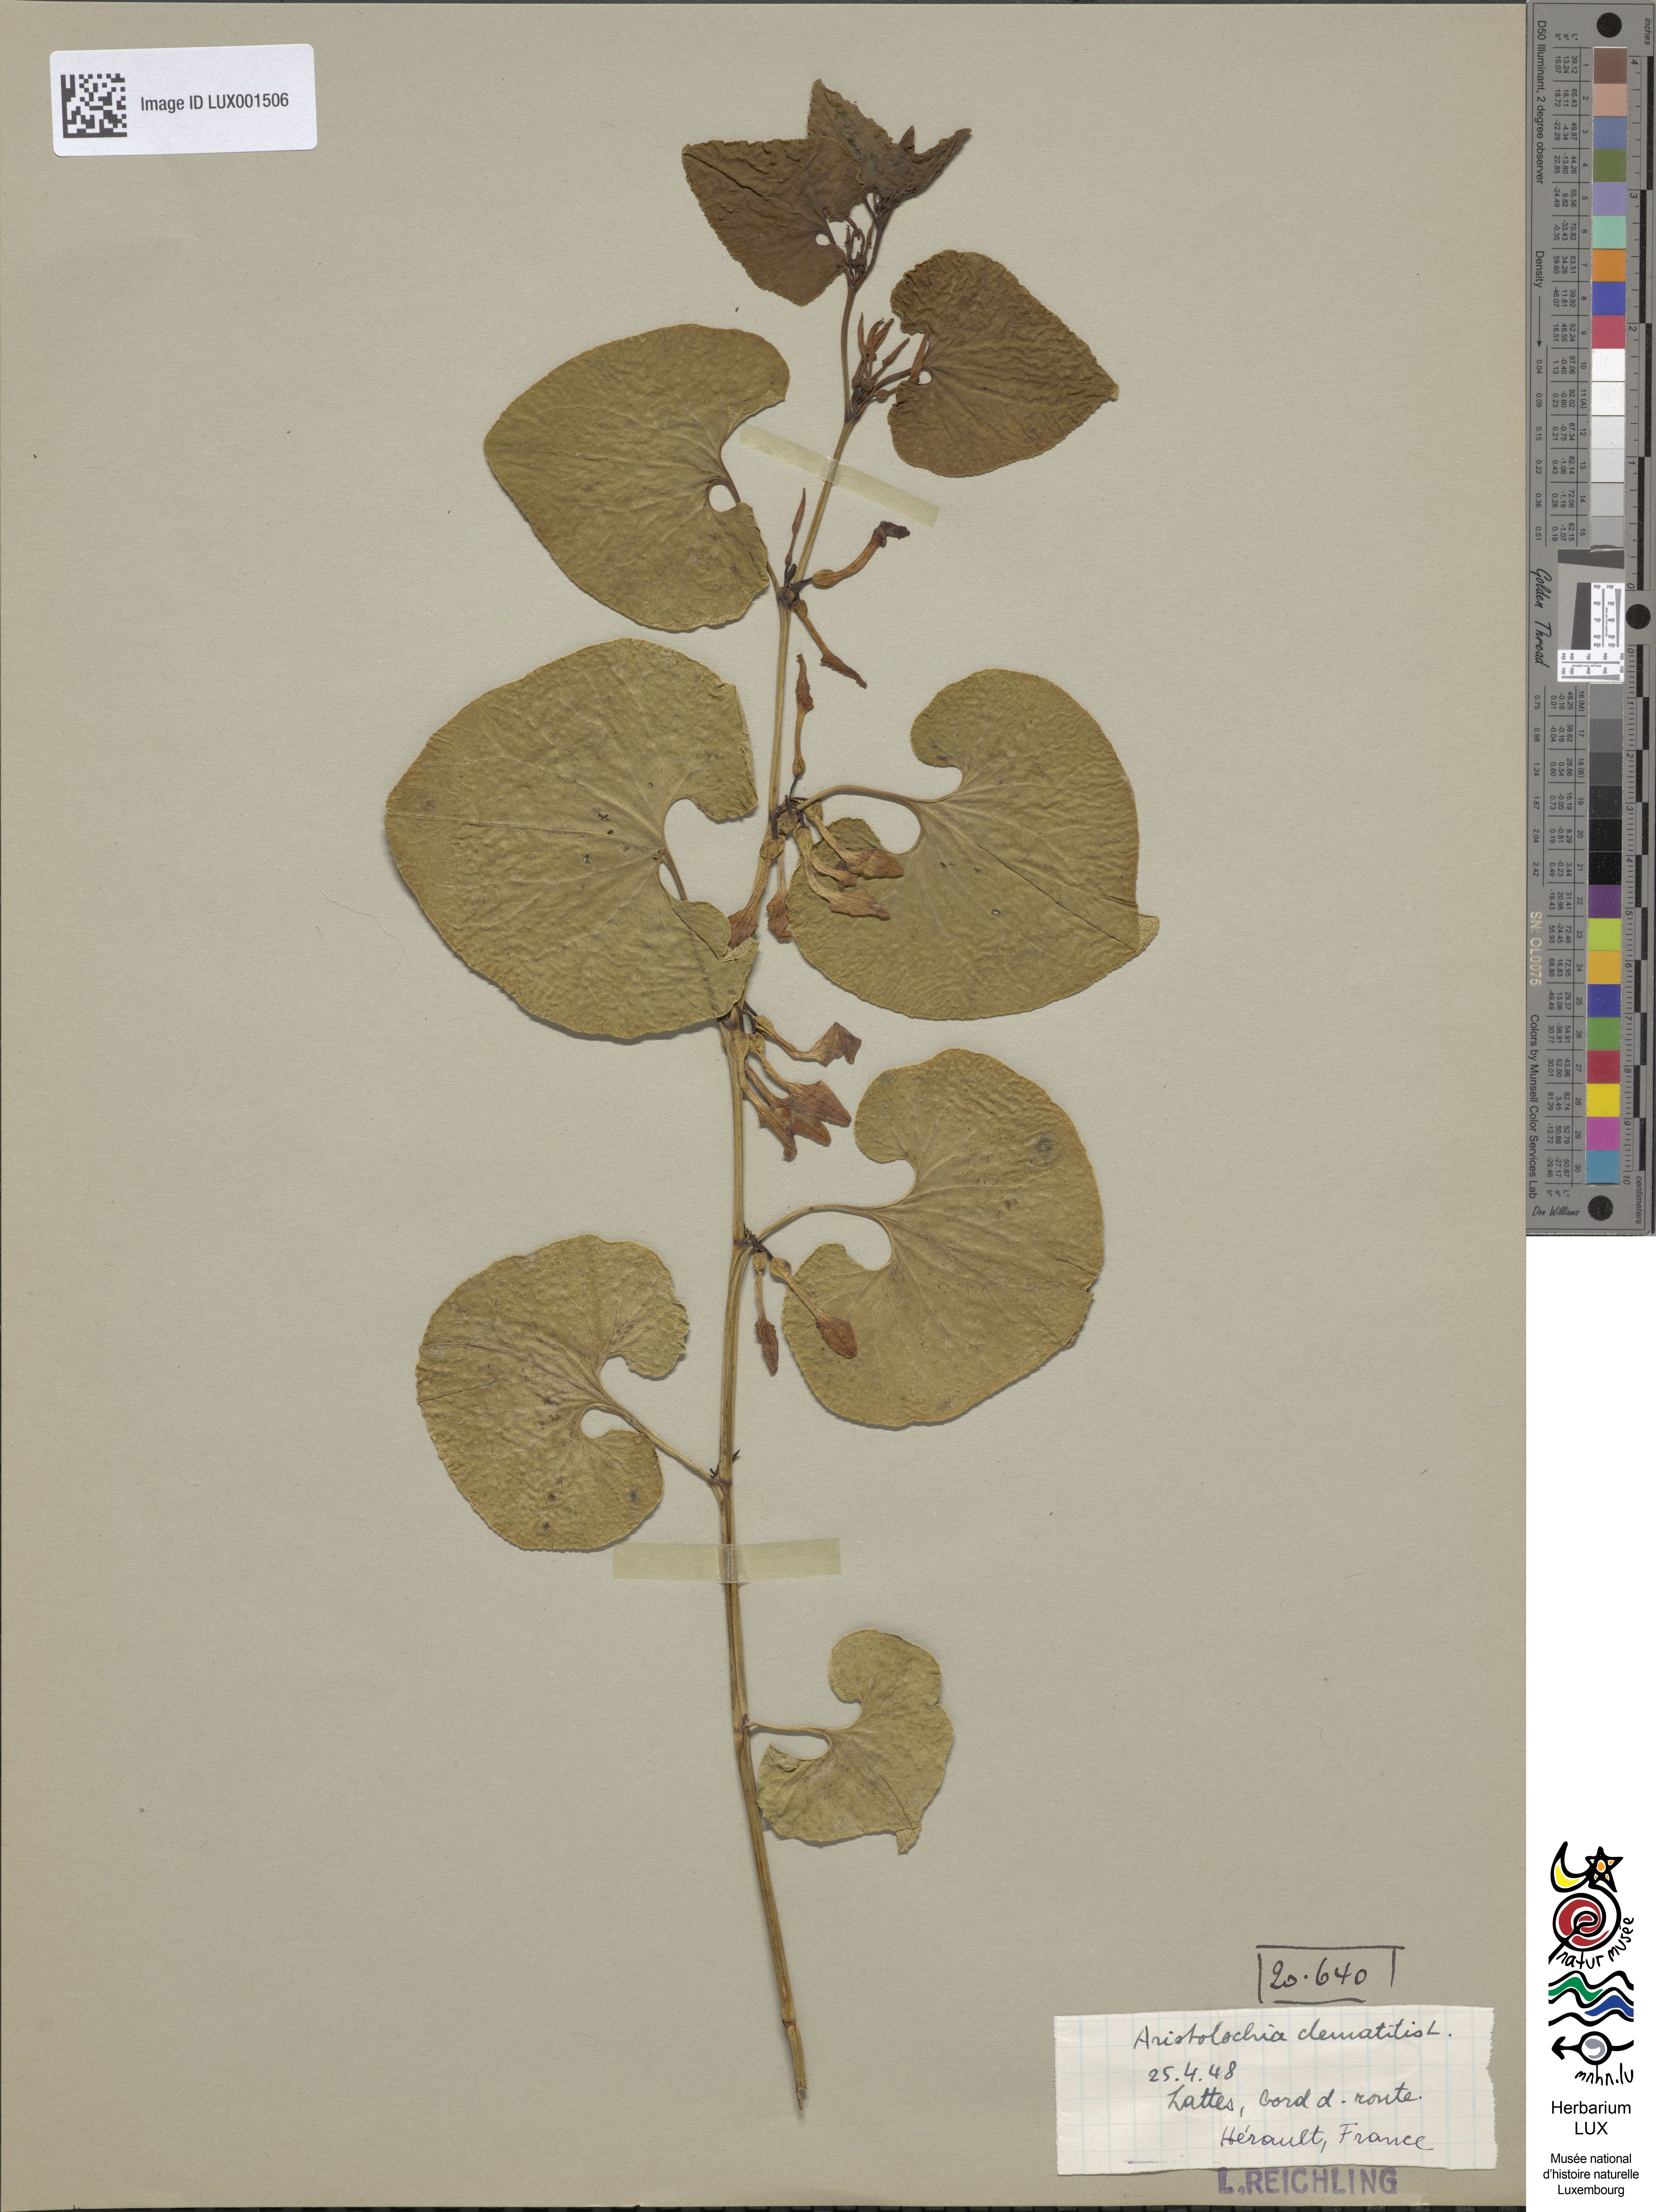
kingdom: Plantae
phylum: Tracheophyta
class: Magnoliopsida
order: Piperales
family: Aristolochiaceae
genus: Aristolochia
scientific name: Aristolochia clematitis
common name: Birthwort
